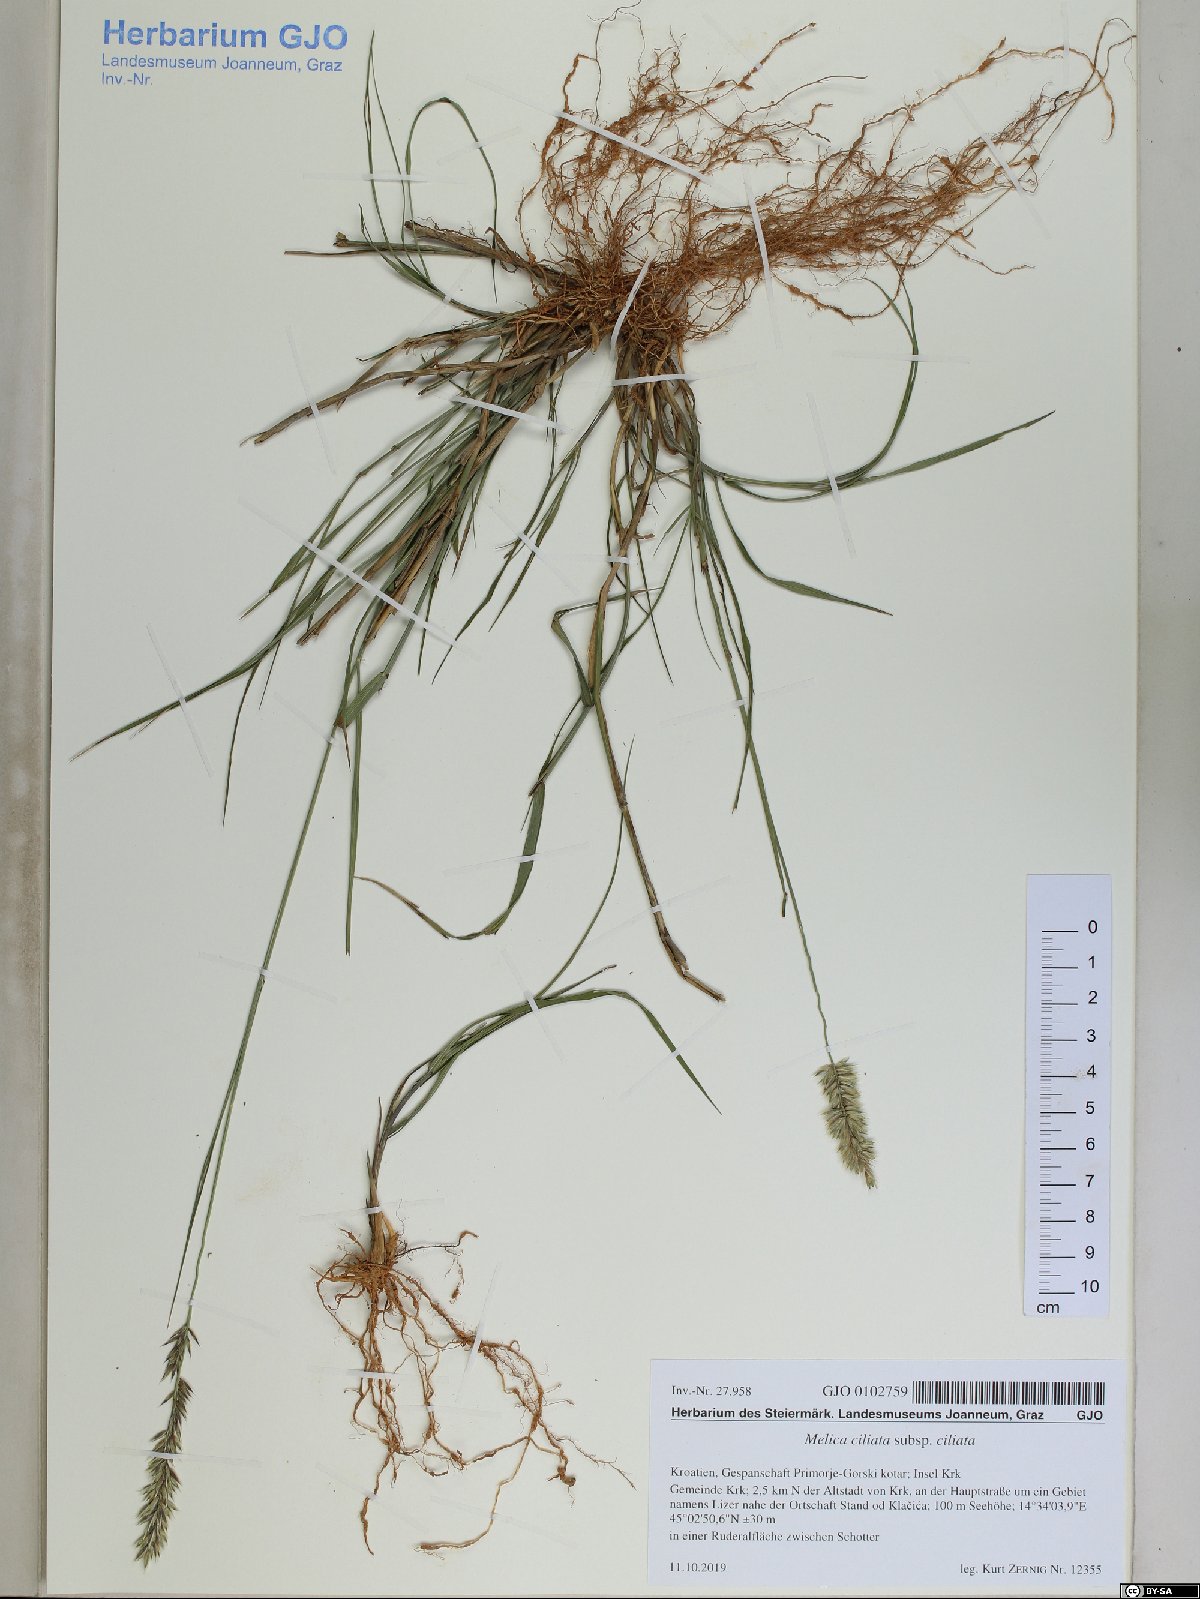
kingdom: Plantae
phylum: Tracheophyta
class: Liliopsida
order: Poales
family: Poaceae
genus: Melica
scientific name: Melica ciliata
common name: Hairy melicgrass
